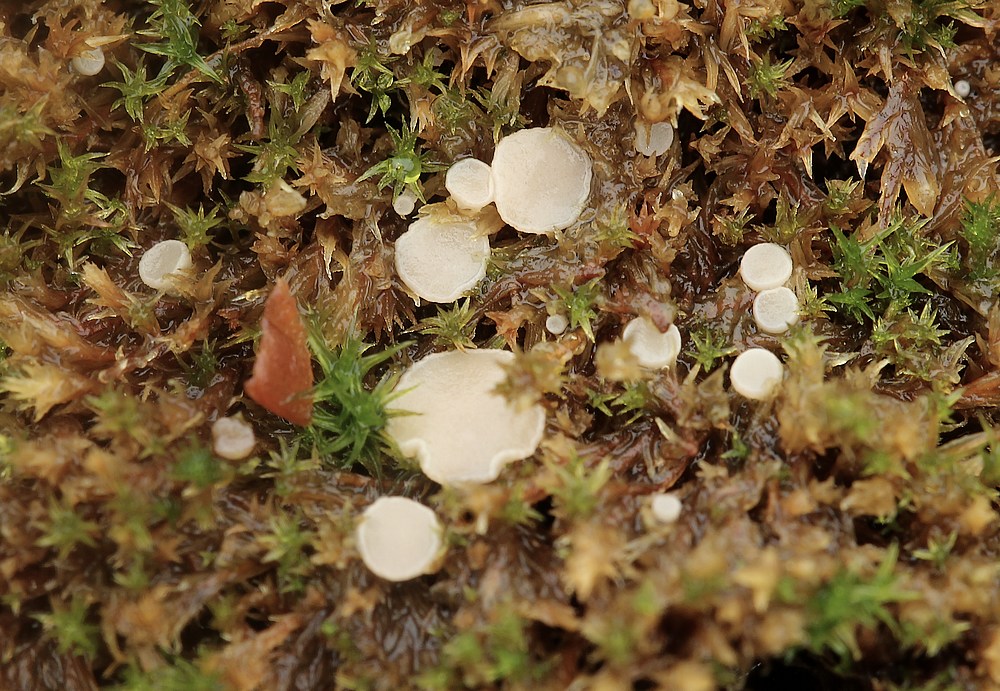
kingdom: Fungi
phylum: Ascomycota
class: Leotiomycetes
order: Helotiales
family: Helotiaceae
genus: Bryoscyphus
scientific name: Bryoscyphus dicrani
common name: bladmos-stilkskive
